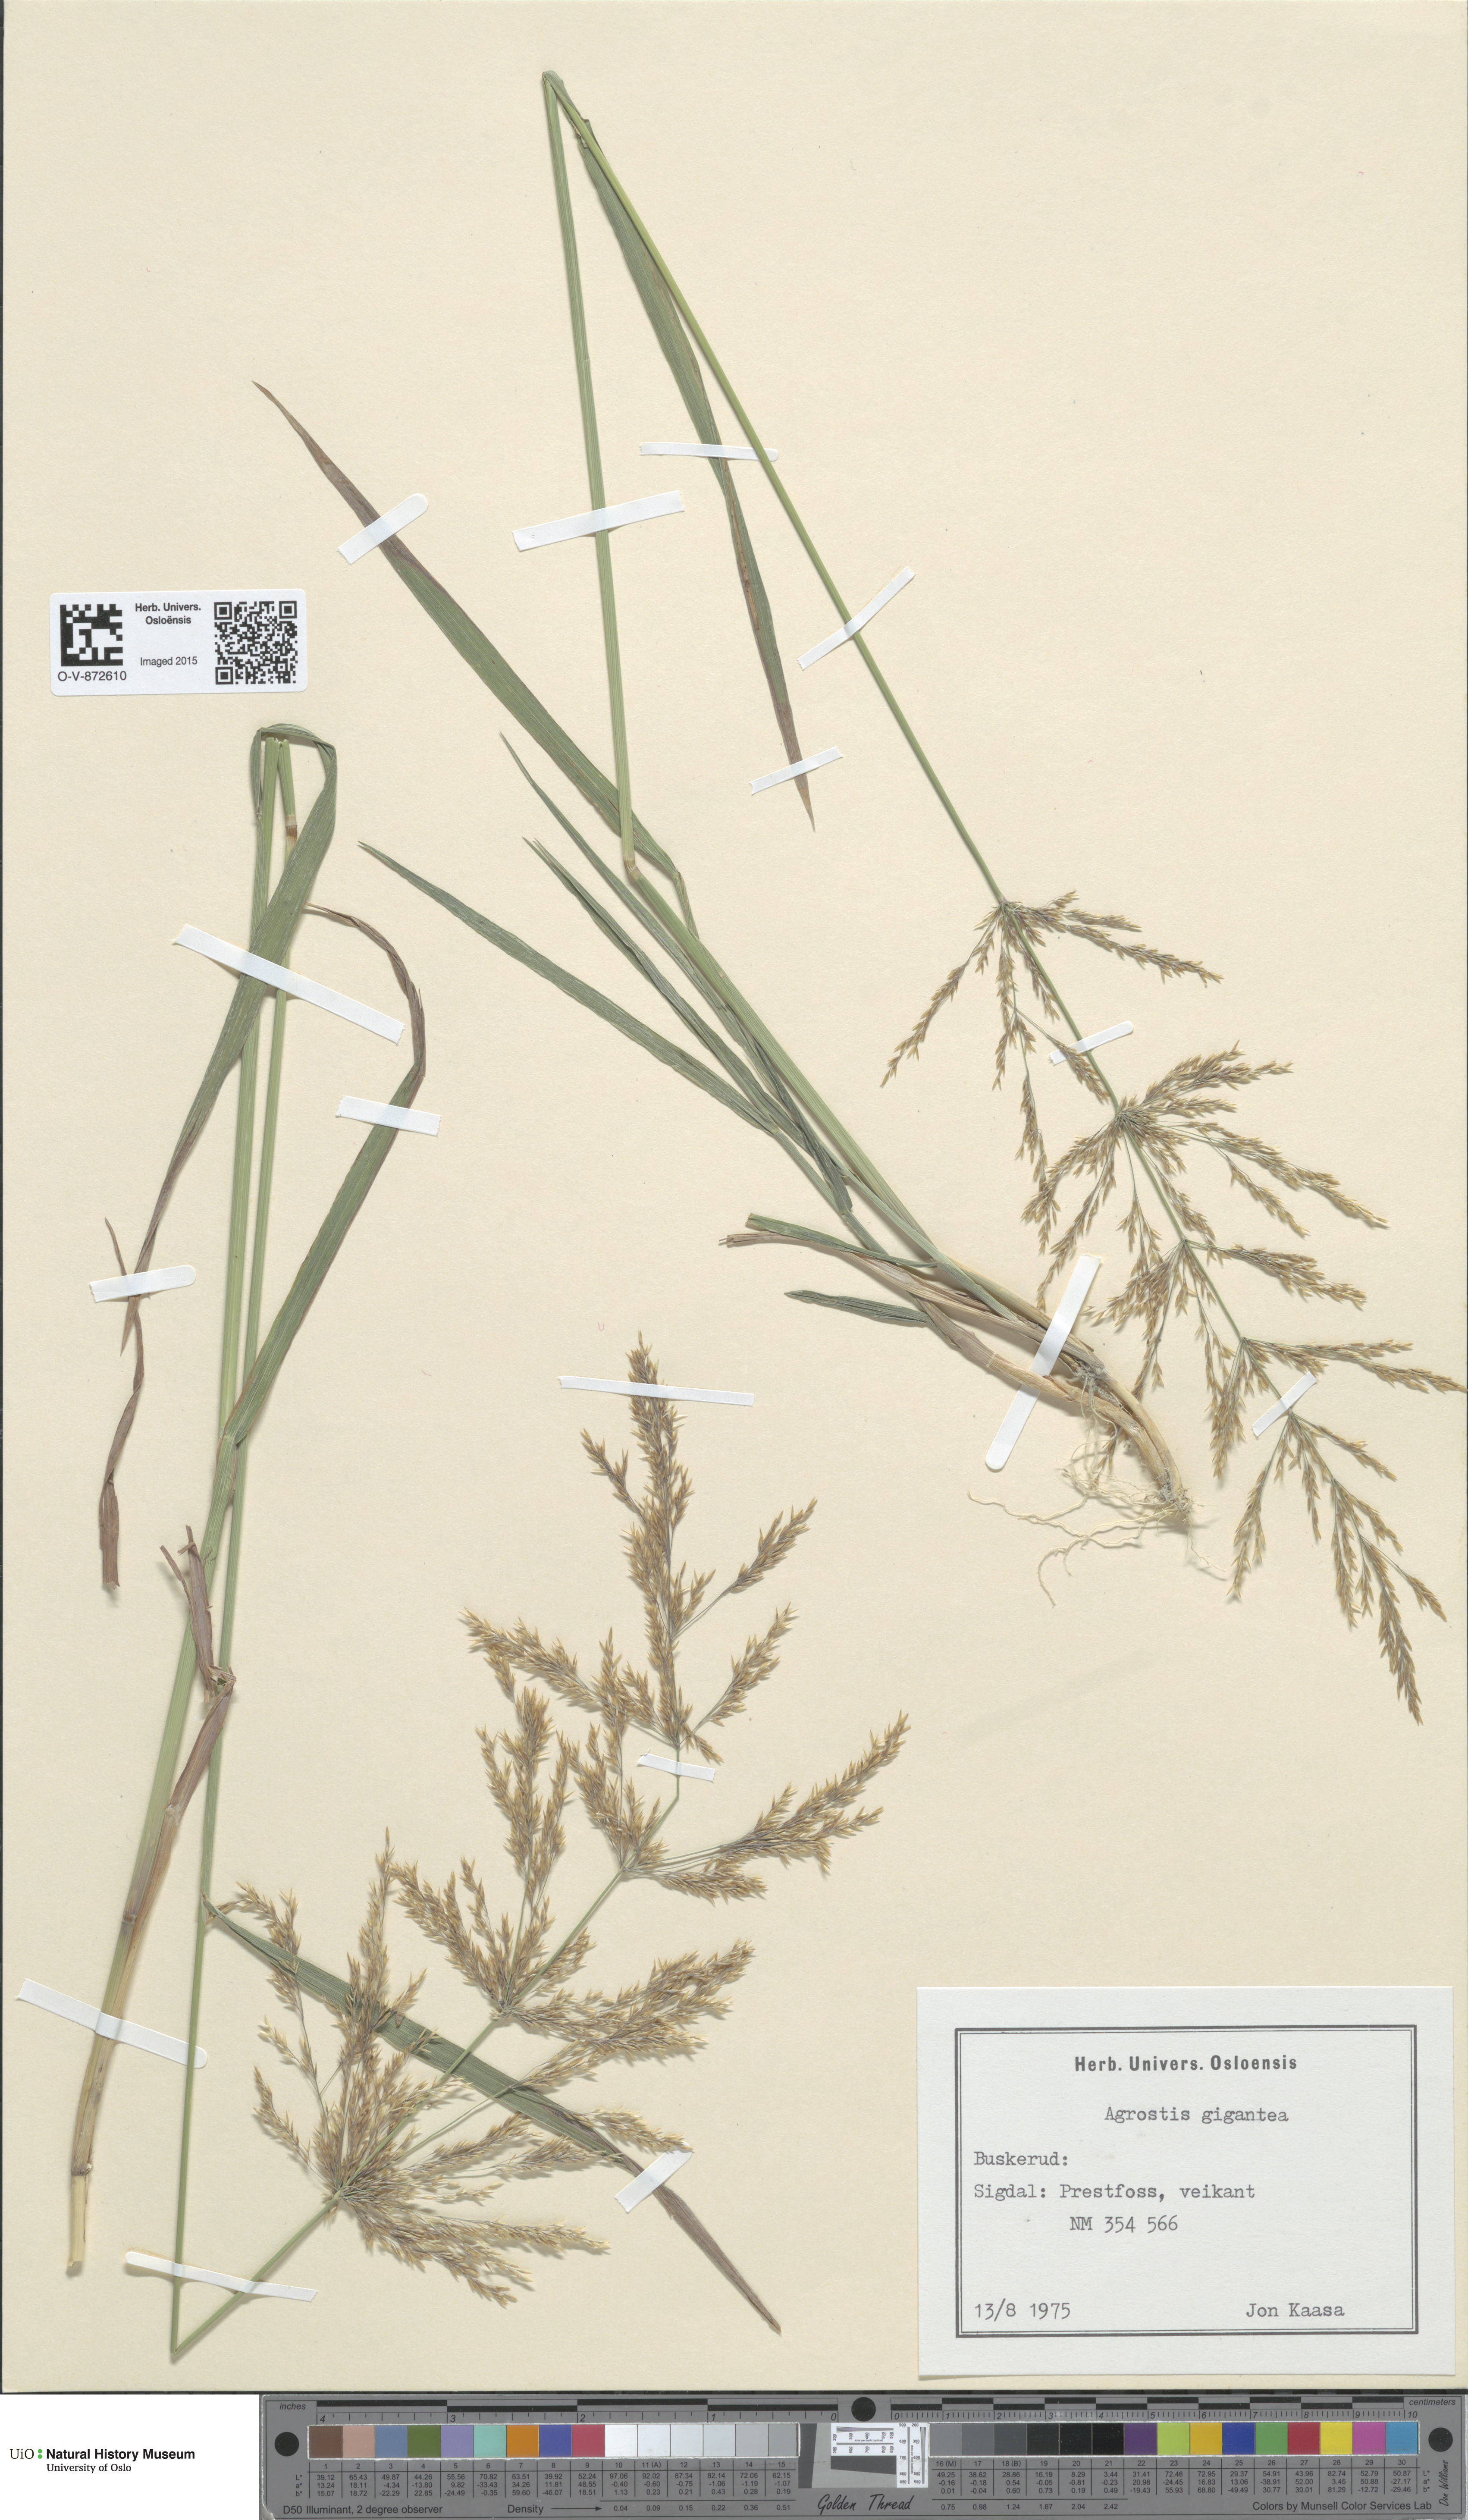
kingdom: Plantae
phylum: Tracheophyta
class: Liliopsida
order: Poales
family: Poaceae
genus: Agrostis
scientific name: Agrostis gigantea
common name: Black bent
